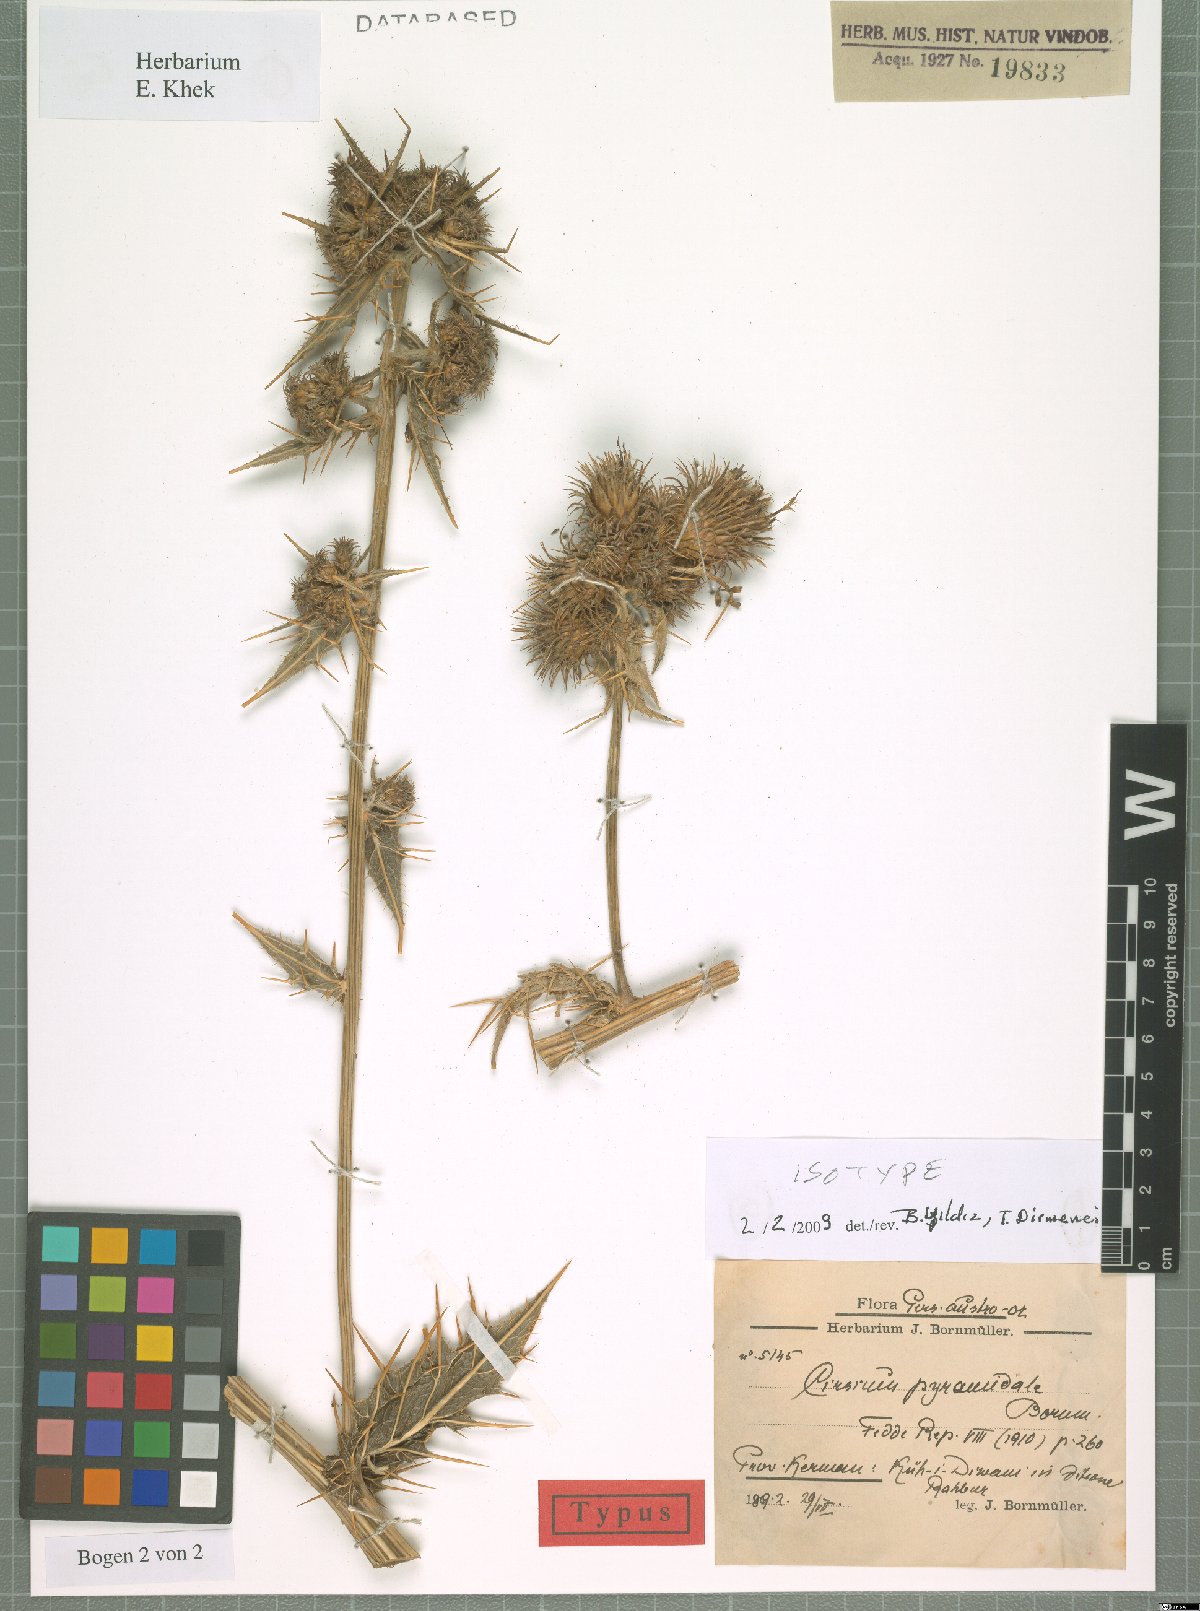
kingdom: Plantae
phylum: Tracheophyta
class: Magnoliopsida
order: Asterales
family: Asteraceae
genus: Lophiolepis
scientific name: Lophiolepis pyramidalis
